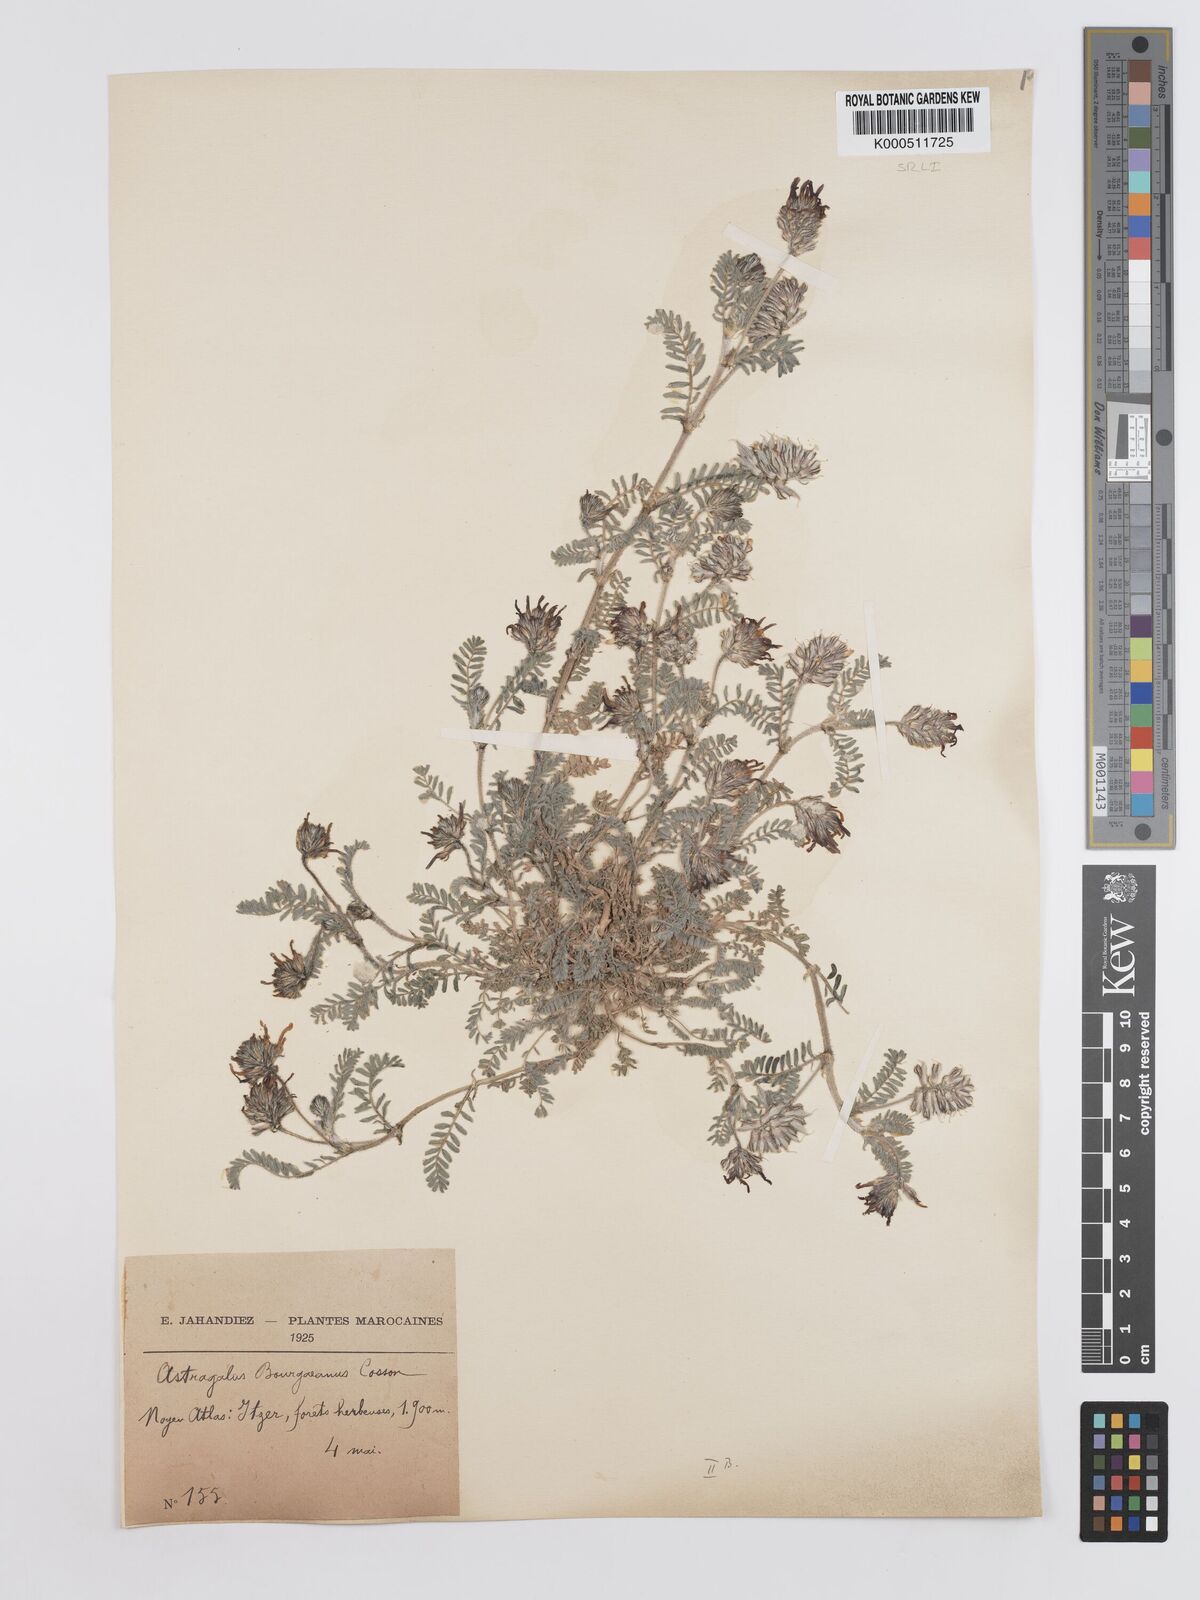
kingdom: Plantae
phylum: Tracheophyta
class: Magnoliopsida
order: Fabales
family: Fabaceae
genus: Astragalus
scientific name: Astragalus bourgaeanus
